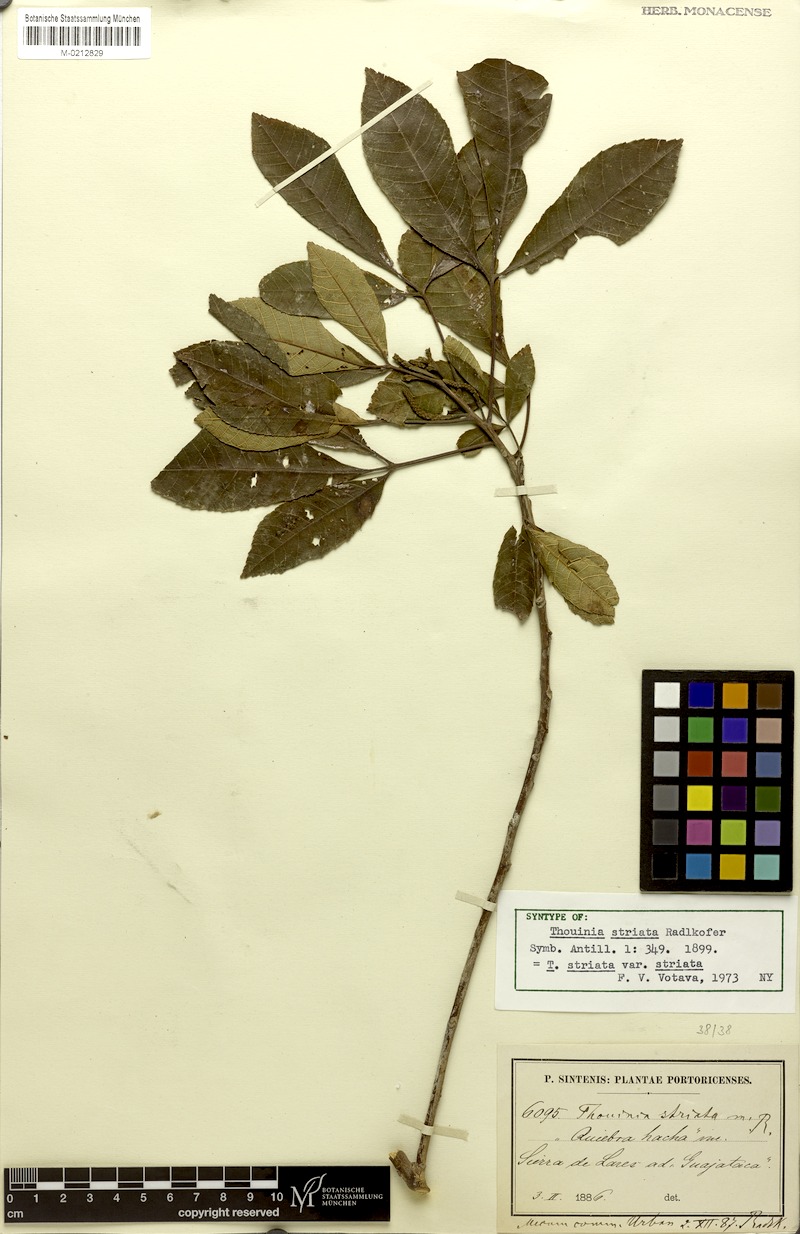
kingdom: Plantae
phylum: Tracheophyta
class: Magnoliopsida
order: Sapindales
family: Sapindaceae
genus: Thouinia
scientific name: Thouinia striata
